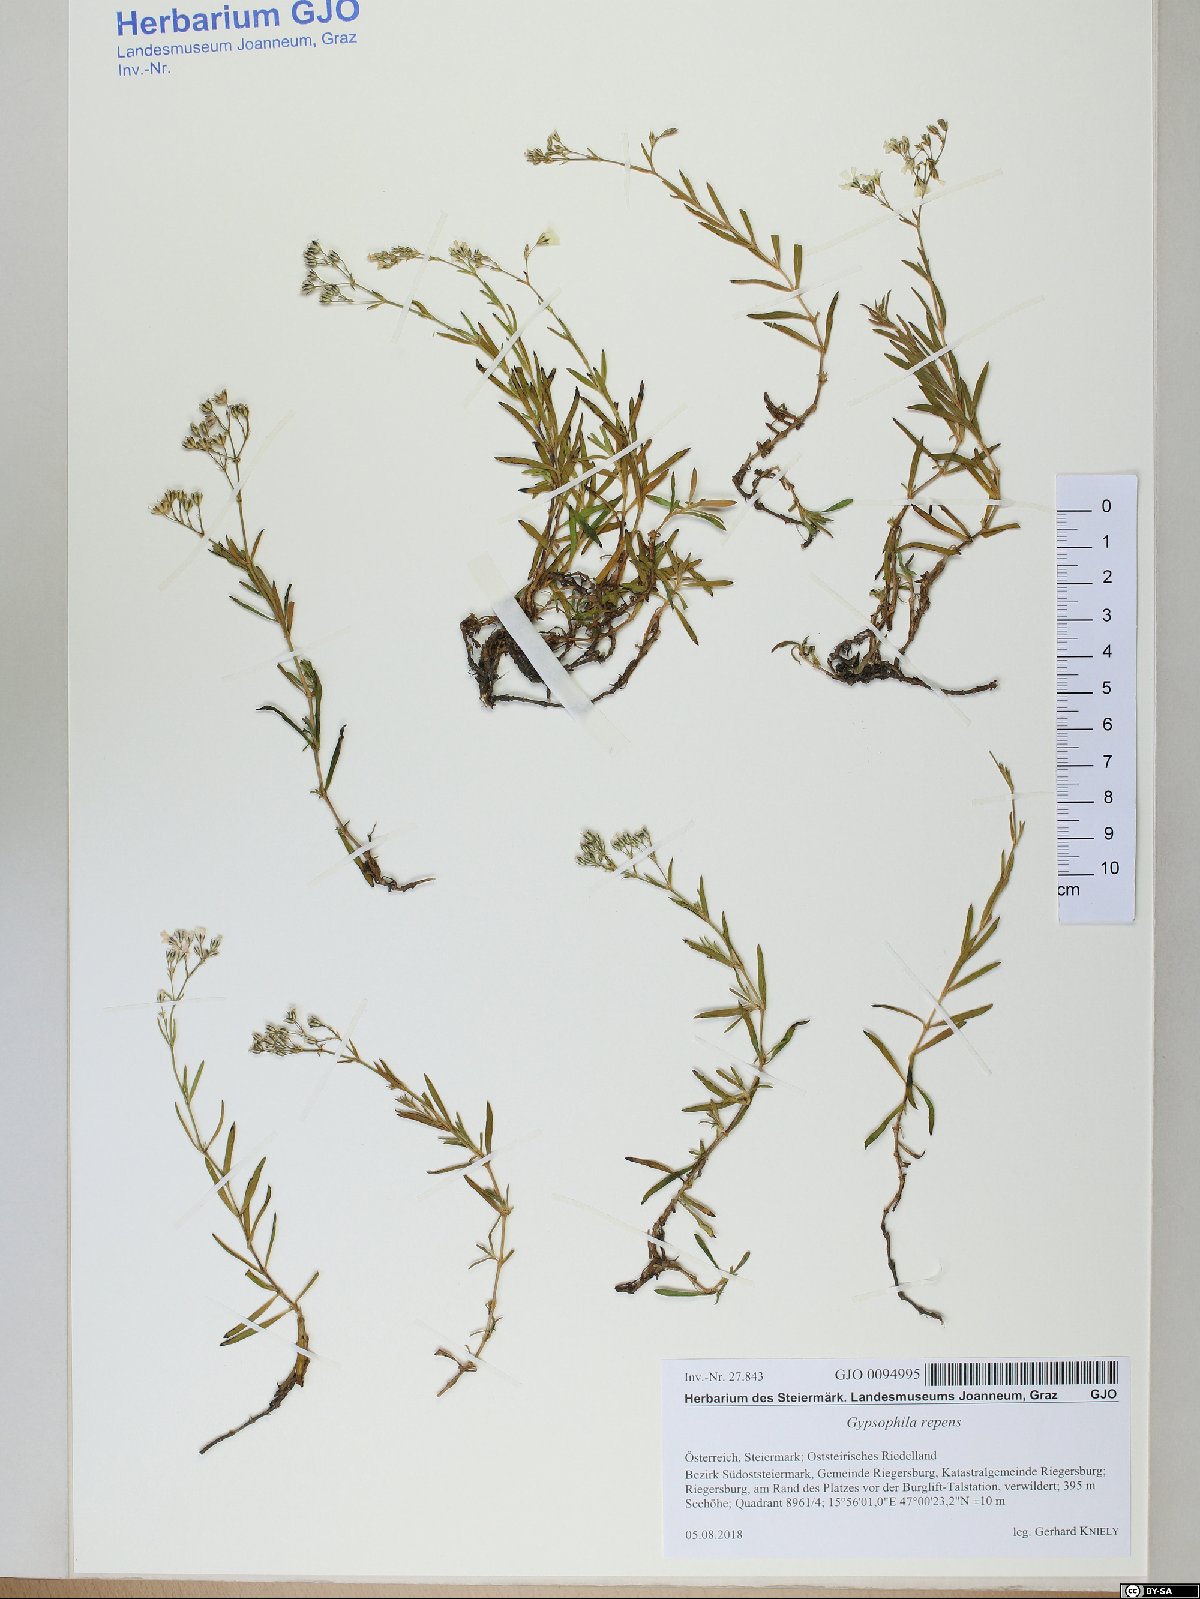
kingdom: Plantae
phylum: Tracheophyta
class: Magnoliopsida
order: Caryophyllales
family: Caryophyllaceae
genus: Gypsophila
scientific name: Gypsophila repens
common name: Creeping baby's-breath
